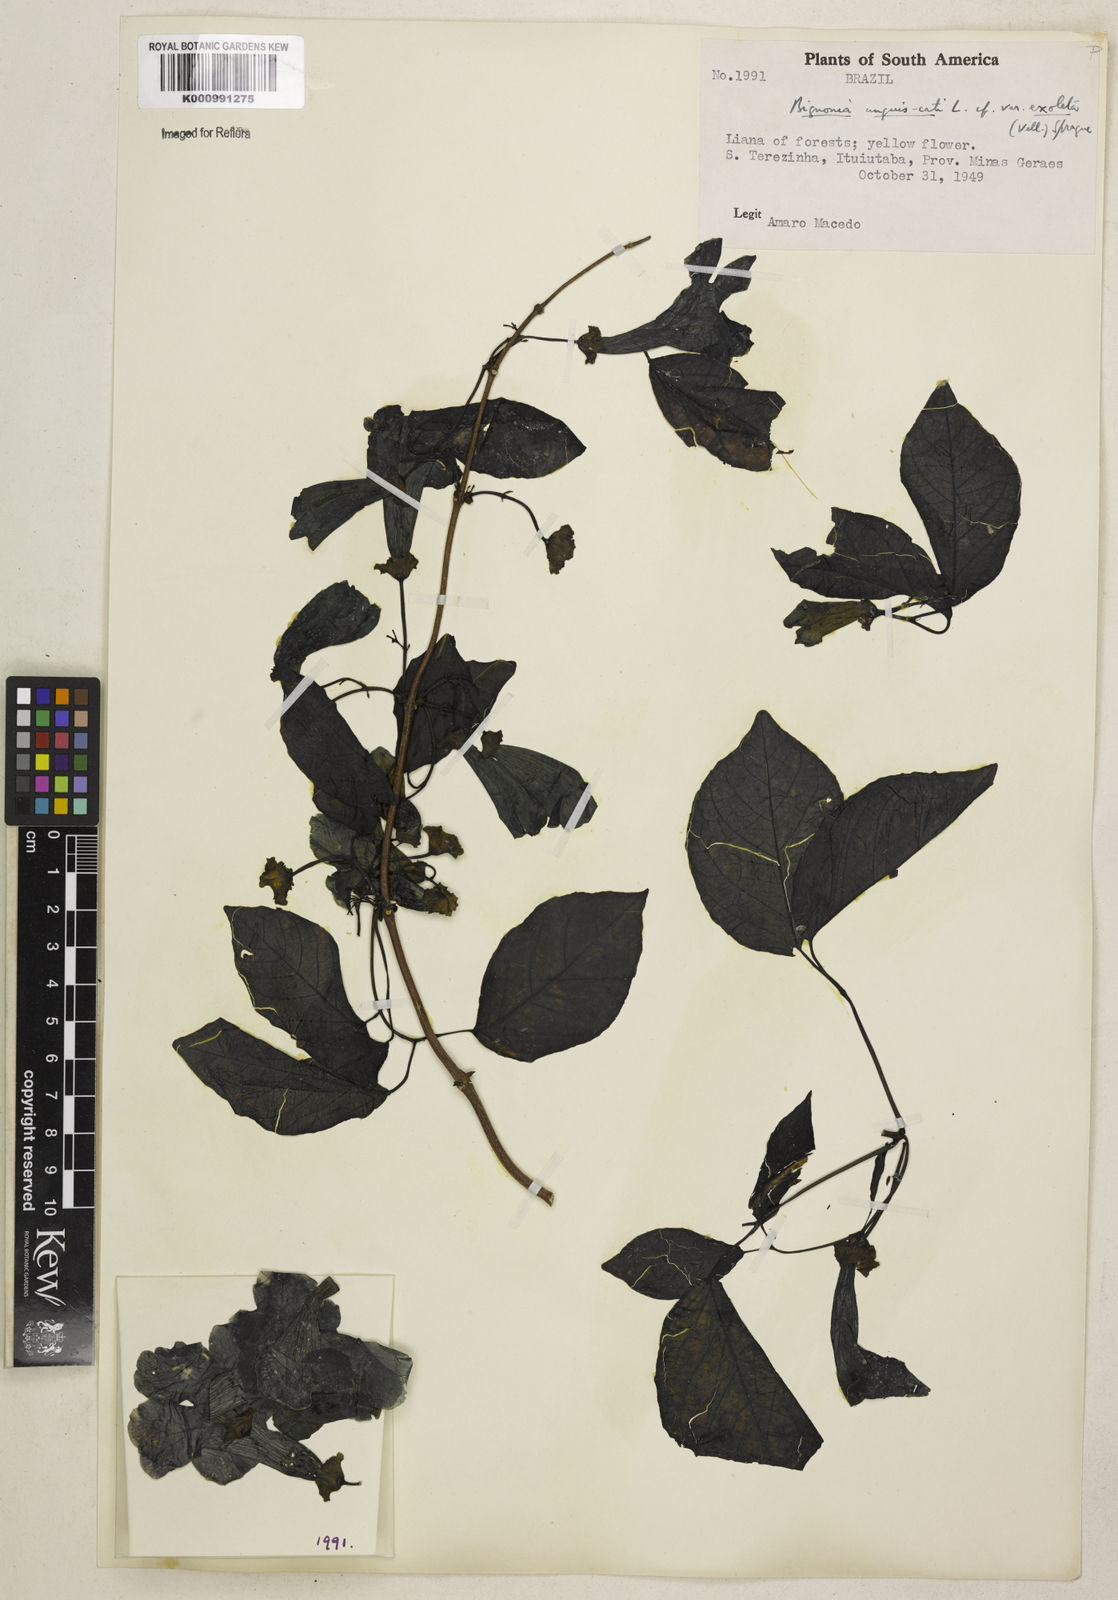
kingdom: Plantae
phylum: Tracheophyta
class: Magnoliopsida
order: Lamiales
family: Bignoniaceae
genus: Dolichandra
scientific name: Dolichandra unguis-cati
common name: Catclaw vine
